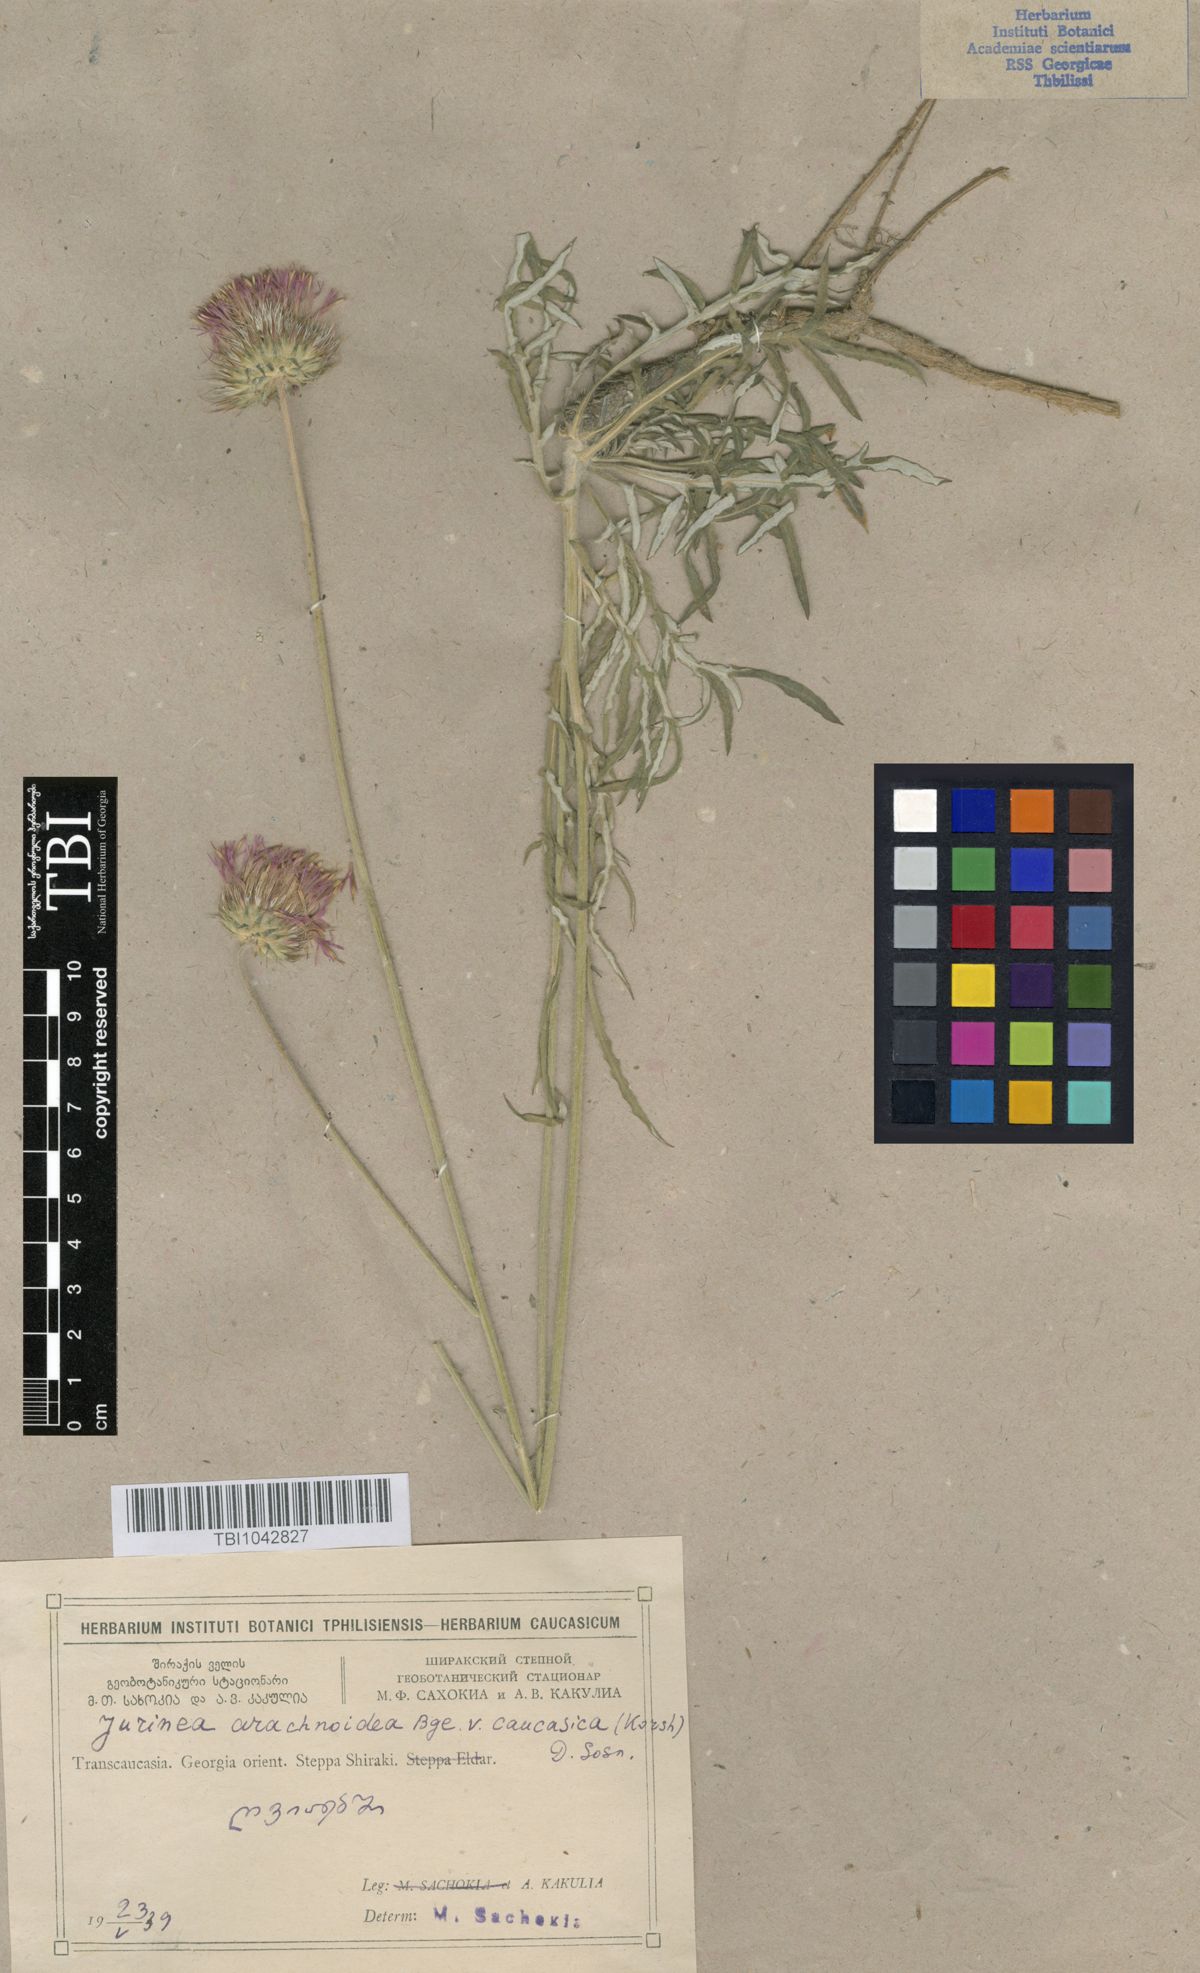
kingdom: Plantae
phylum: Tracheophyta
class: Magnoliopsida
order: Asterales
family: Asteraceae
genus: Jurinea
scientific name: Jurinea blanda
